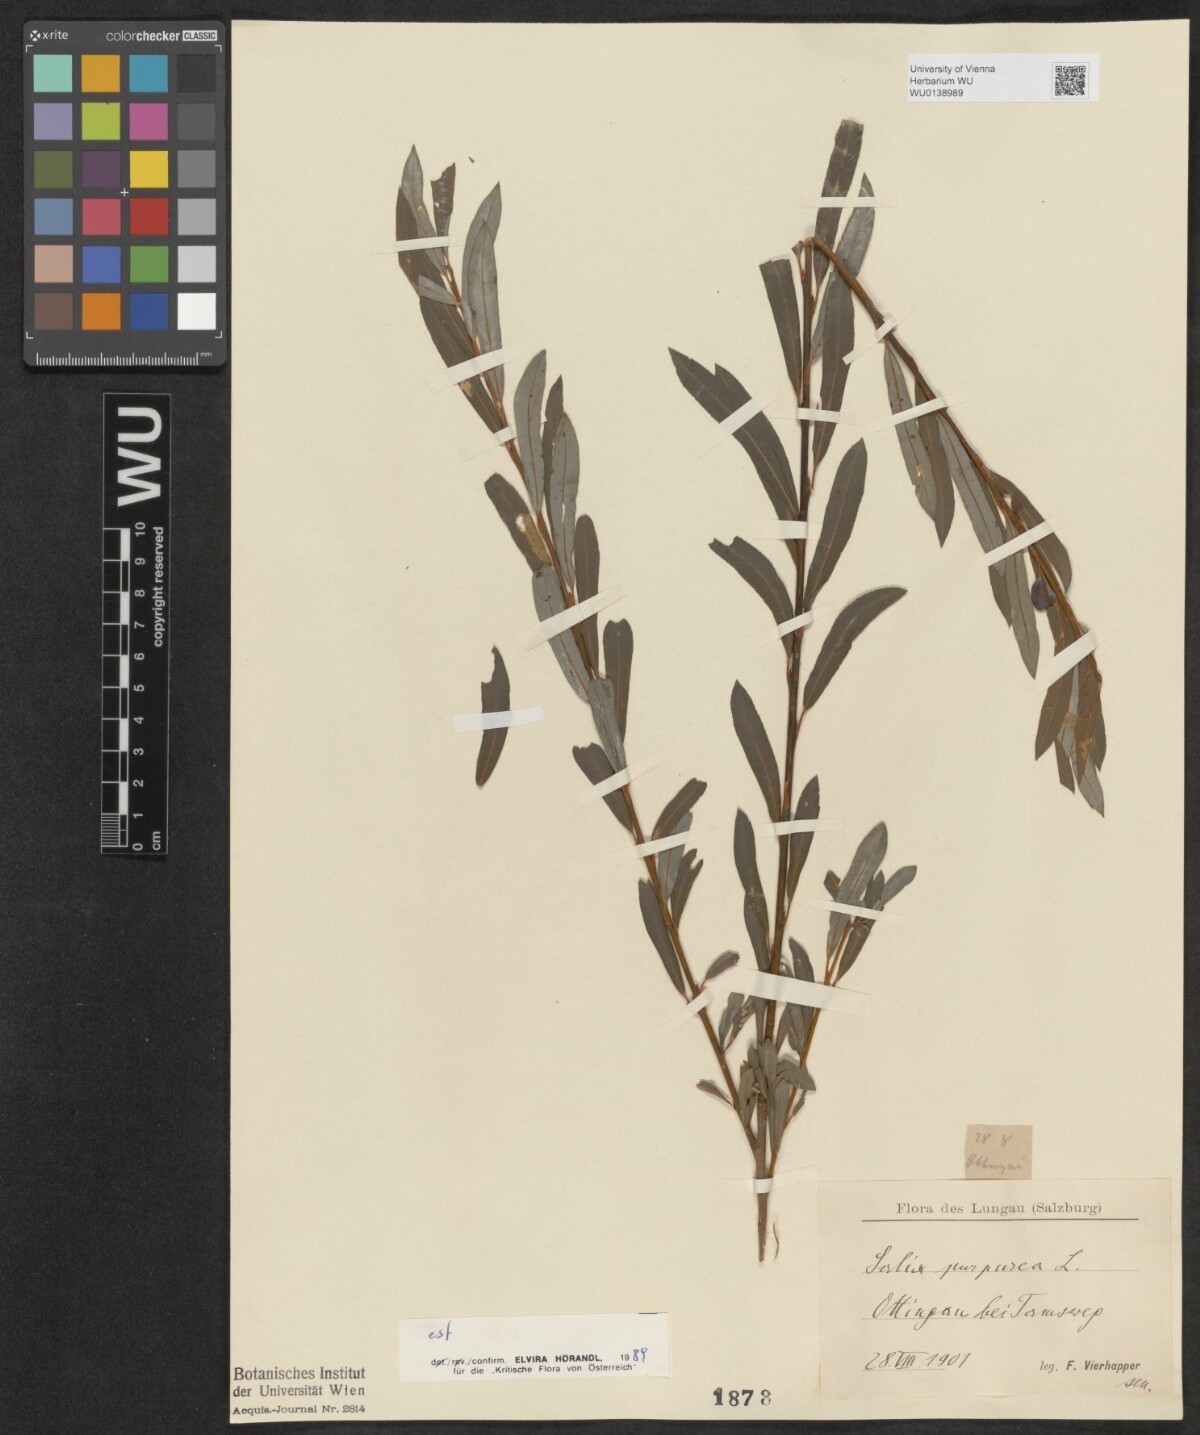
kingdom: Plantae
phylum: Tracheophyta
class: Magnoliopsida
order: Malpighiales
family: Salicaceae
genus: Salix
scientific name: Salix purpurea
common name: Purple willow
